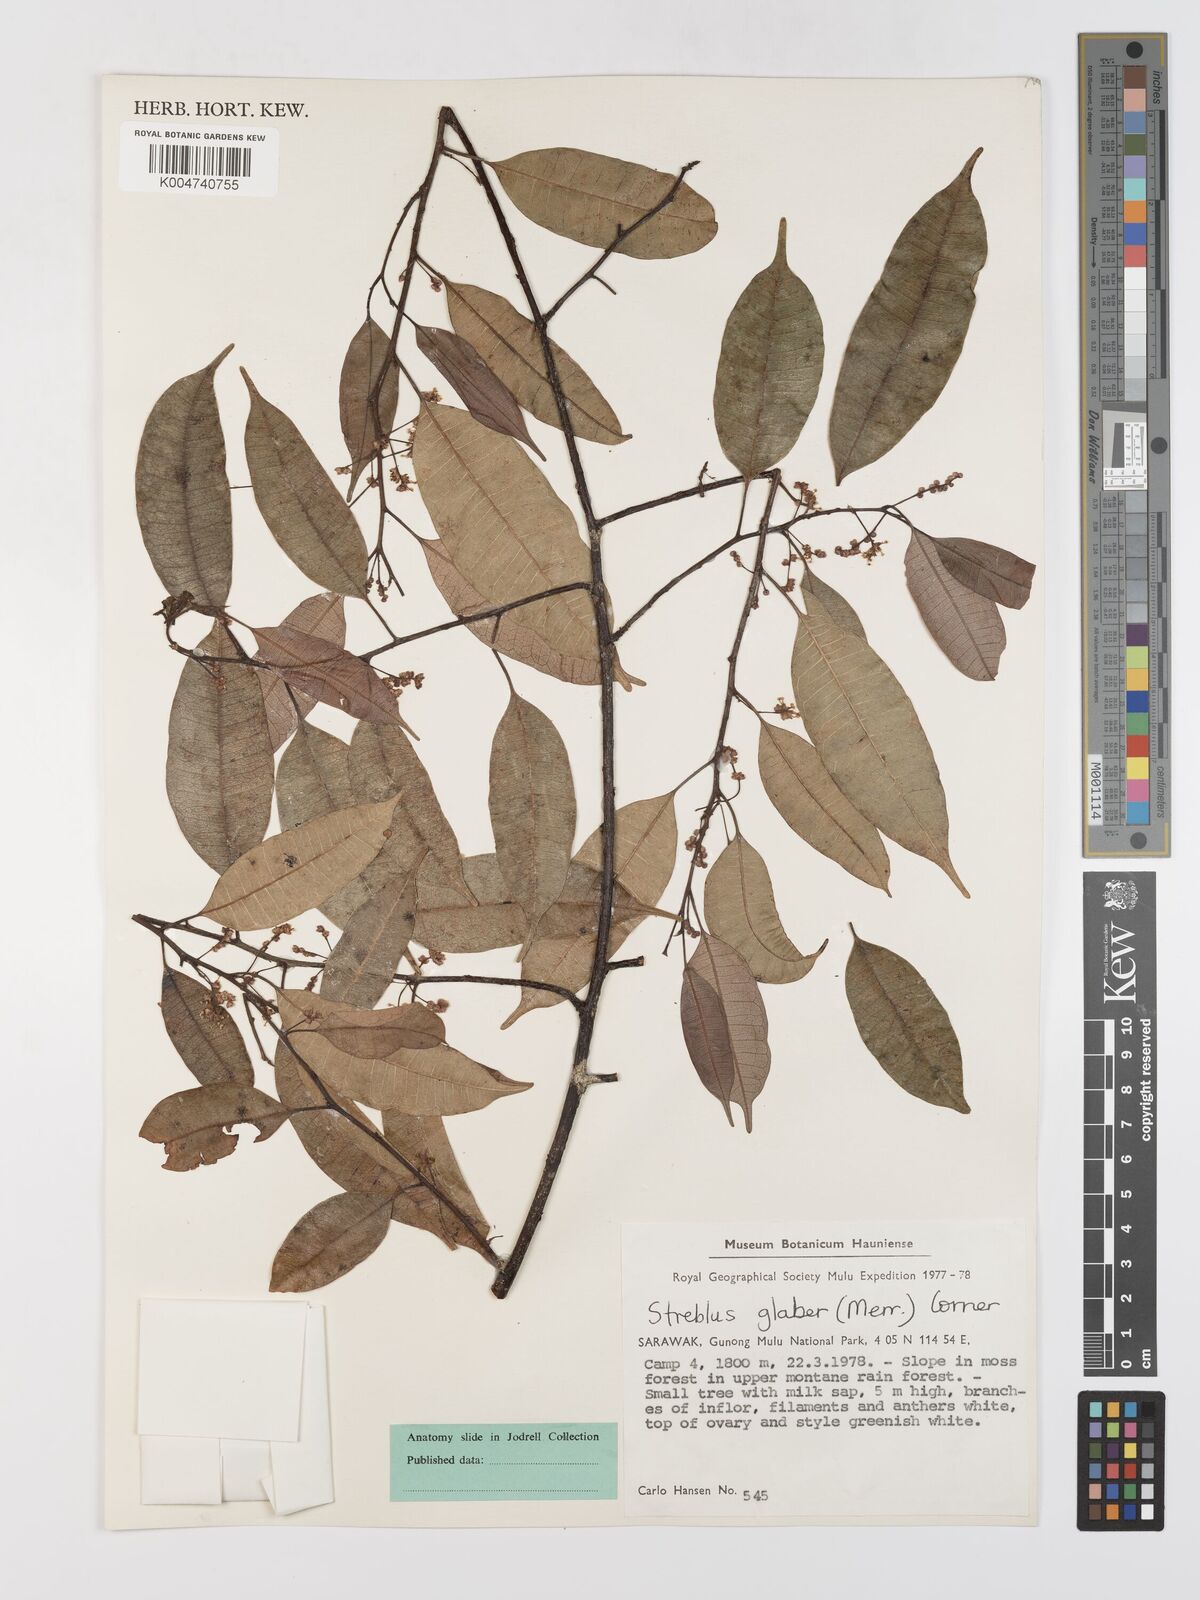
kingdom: Plantae
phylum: Tracheophyta
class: Magnoliopsida
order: Rosales
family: Moraceae
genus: Paratrophis
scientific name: Paratrophis glabra
